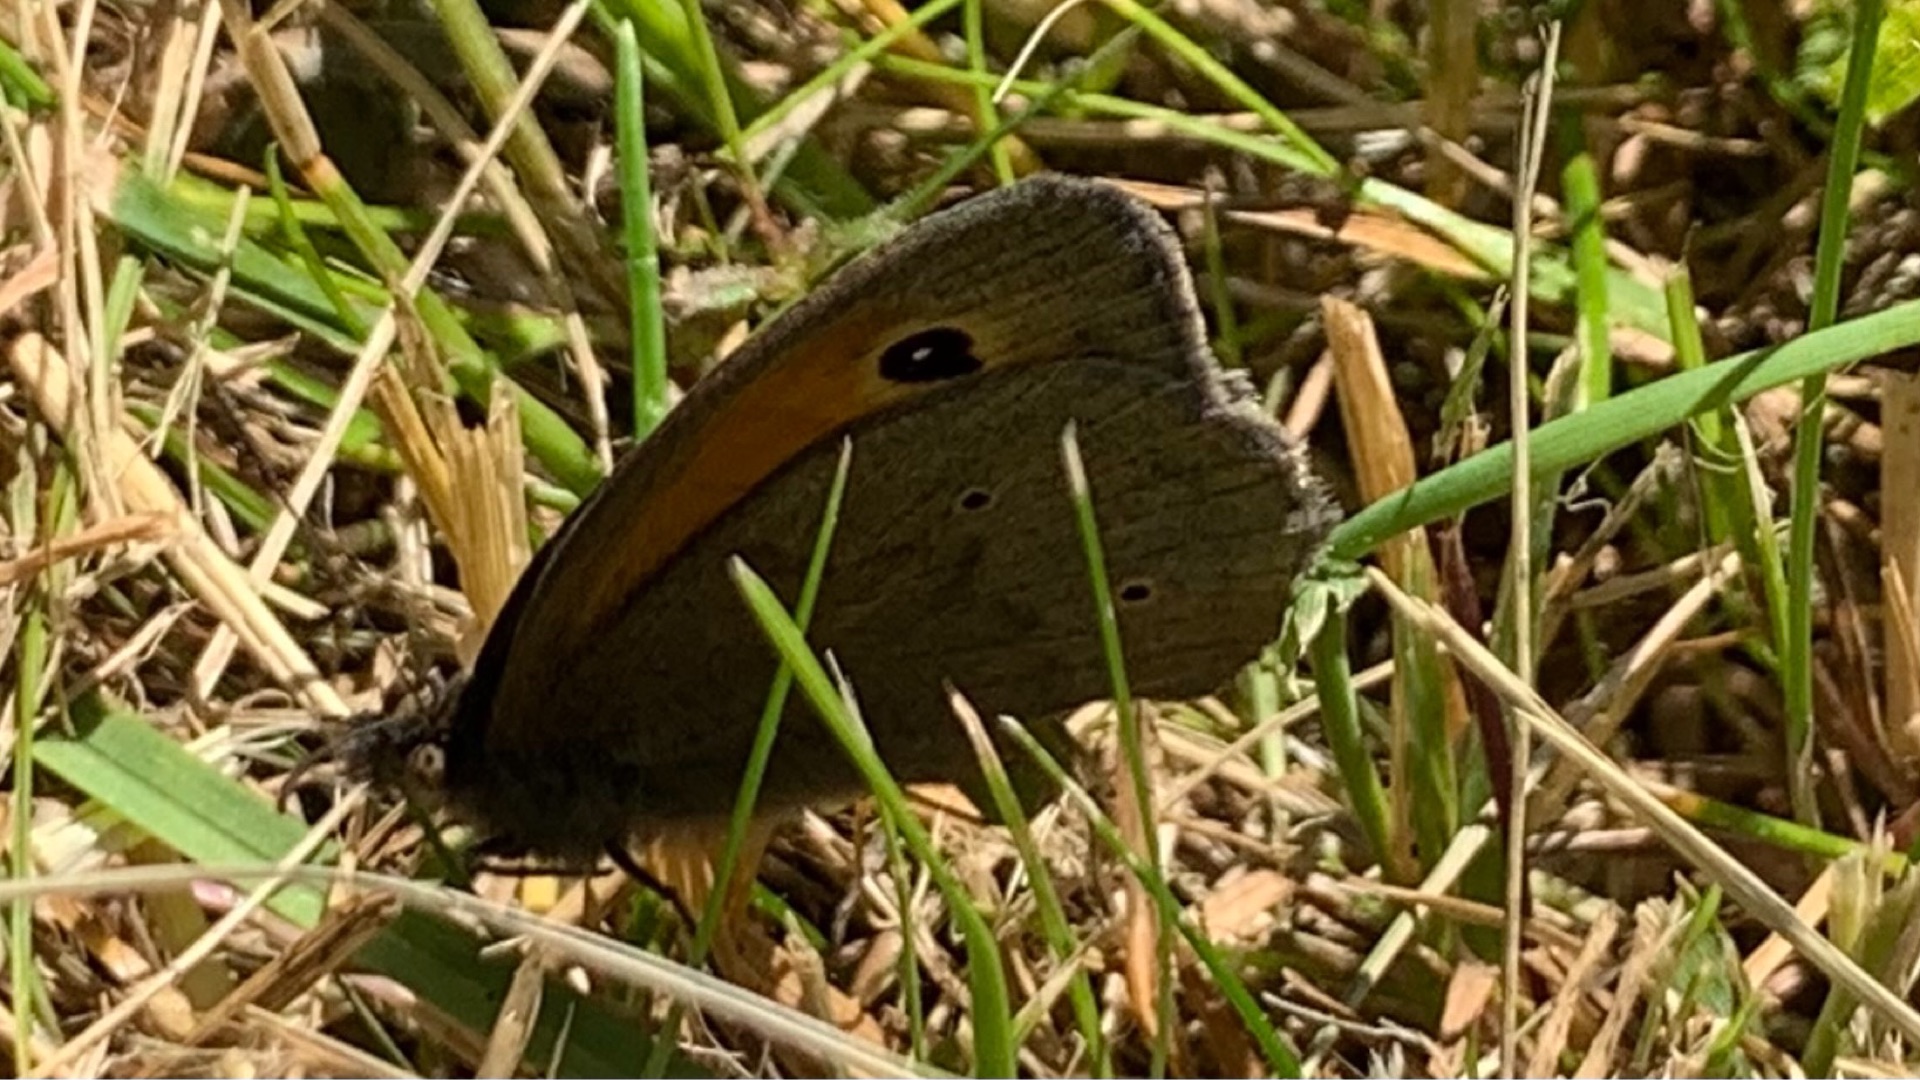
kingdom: Animalia
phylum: Arthropoda
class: Insecta
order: Lepidoptera
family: Nymphalidae
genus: Maniola
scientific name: Maniola jurtina
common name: Græsrandøje
